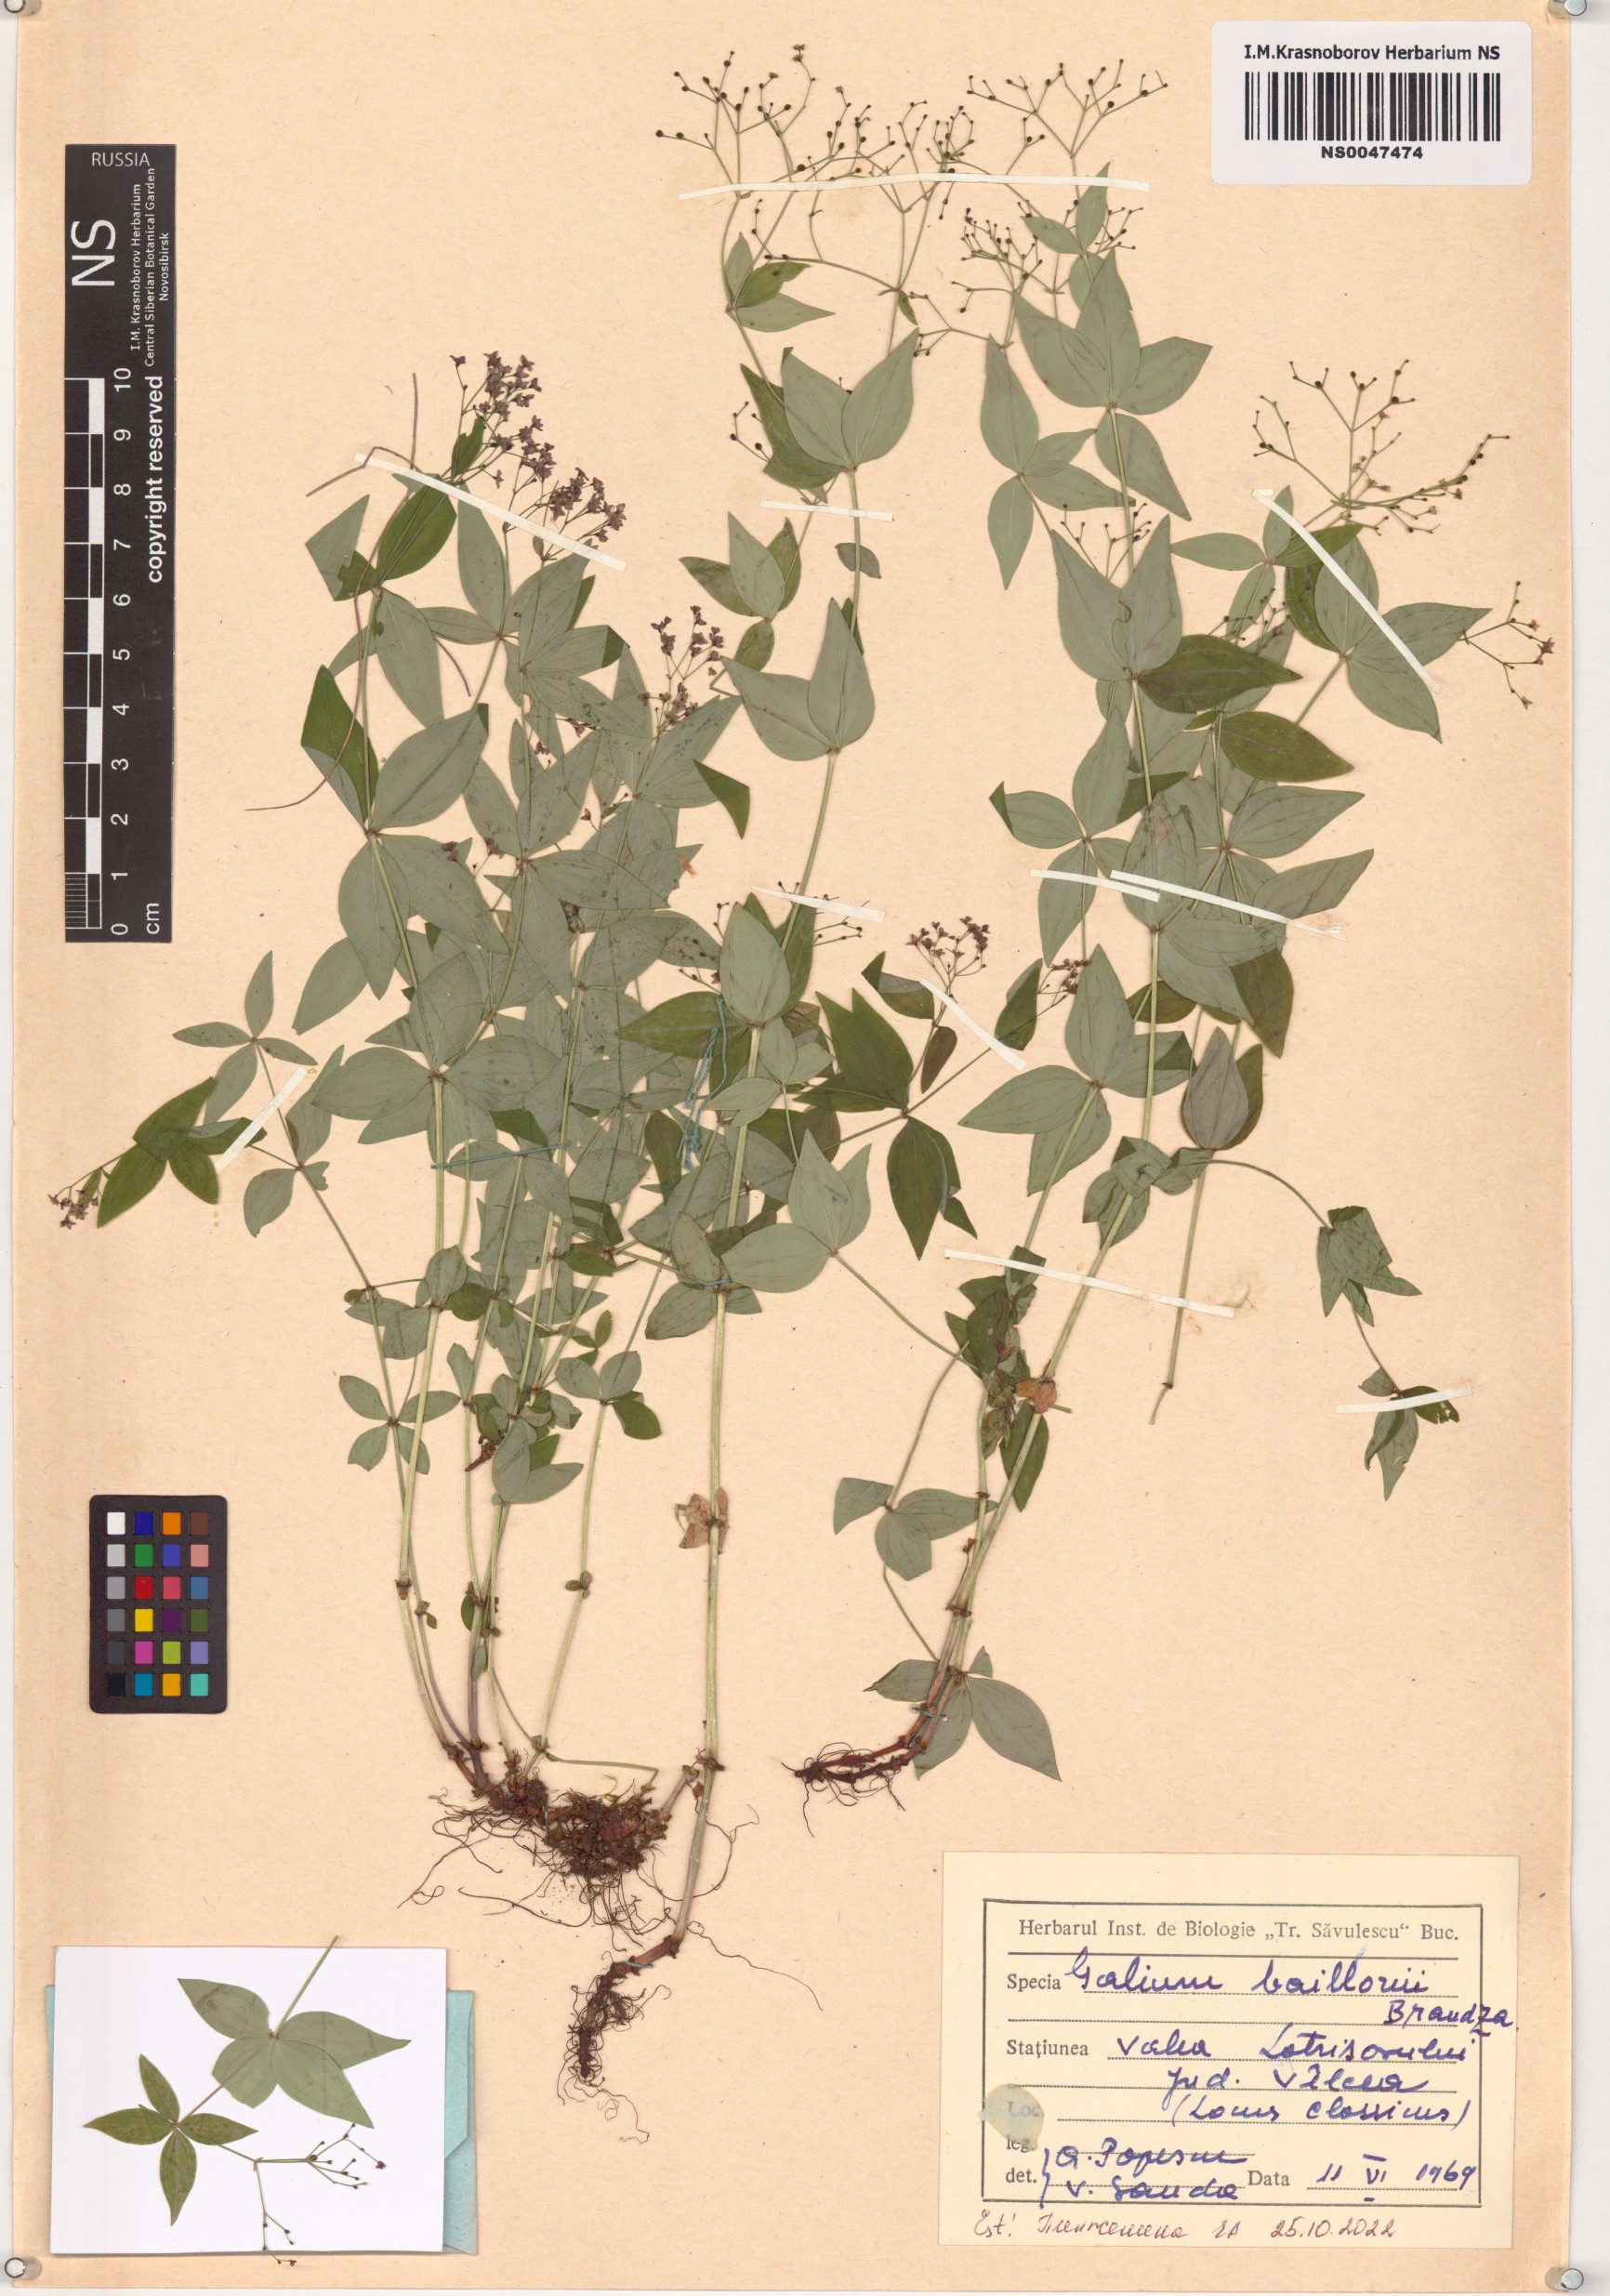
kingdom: Plantae
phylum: Tracheophyta
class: Magnoliopsida
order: Gentianales
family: Rubiaceae
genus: Galium
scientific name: Galium baillonii
